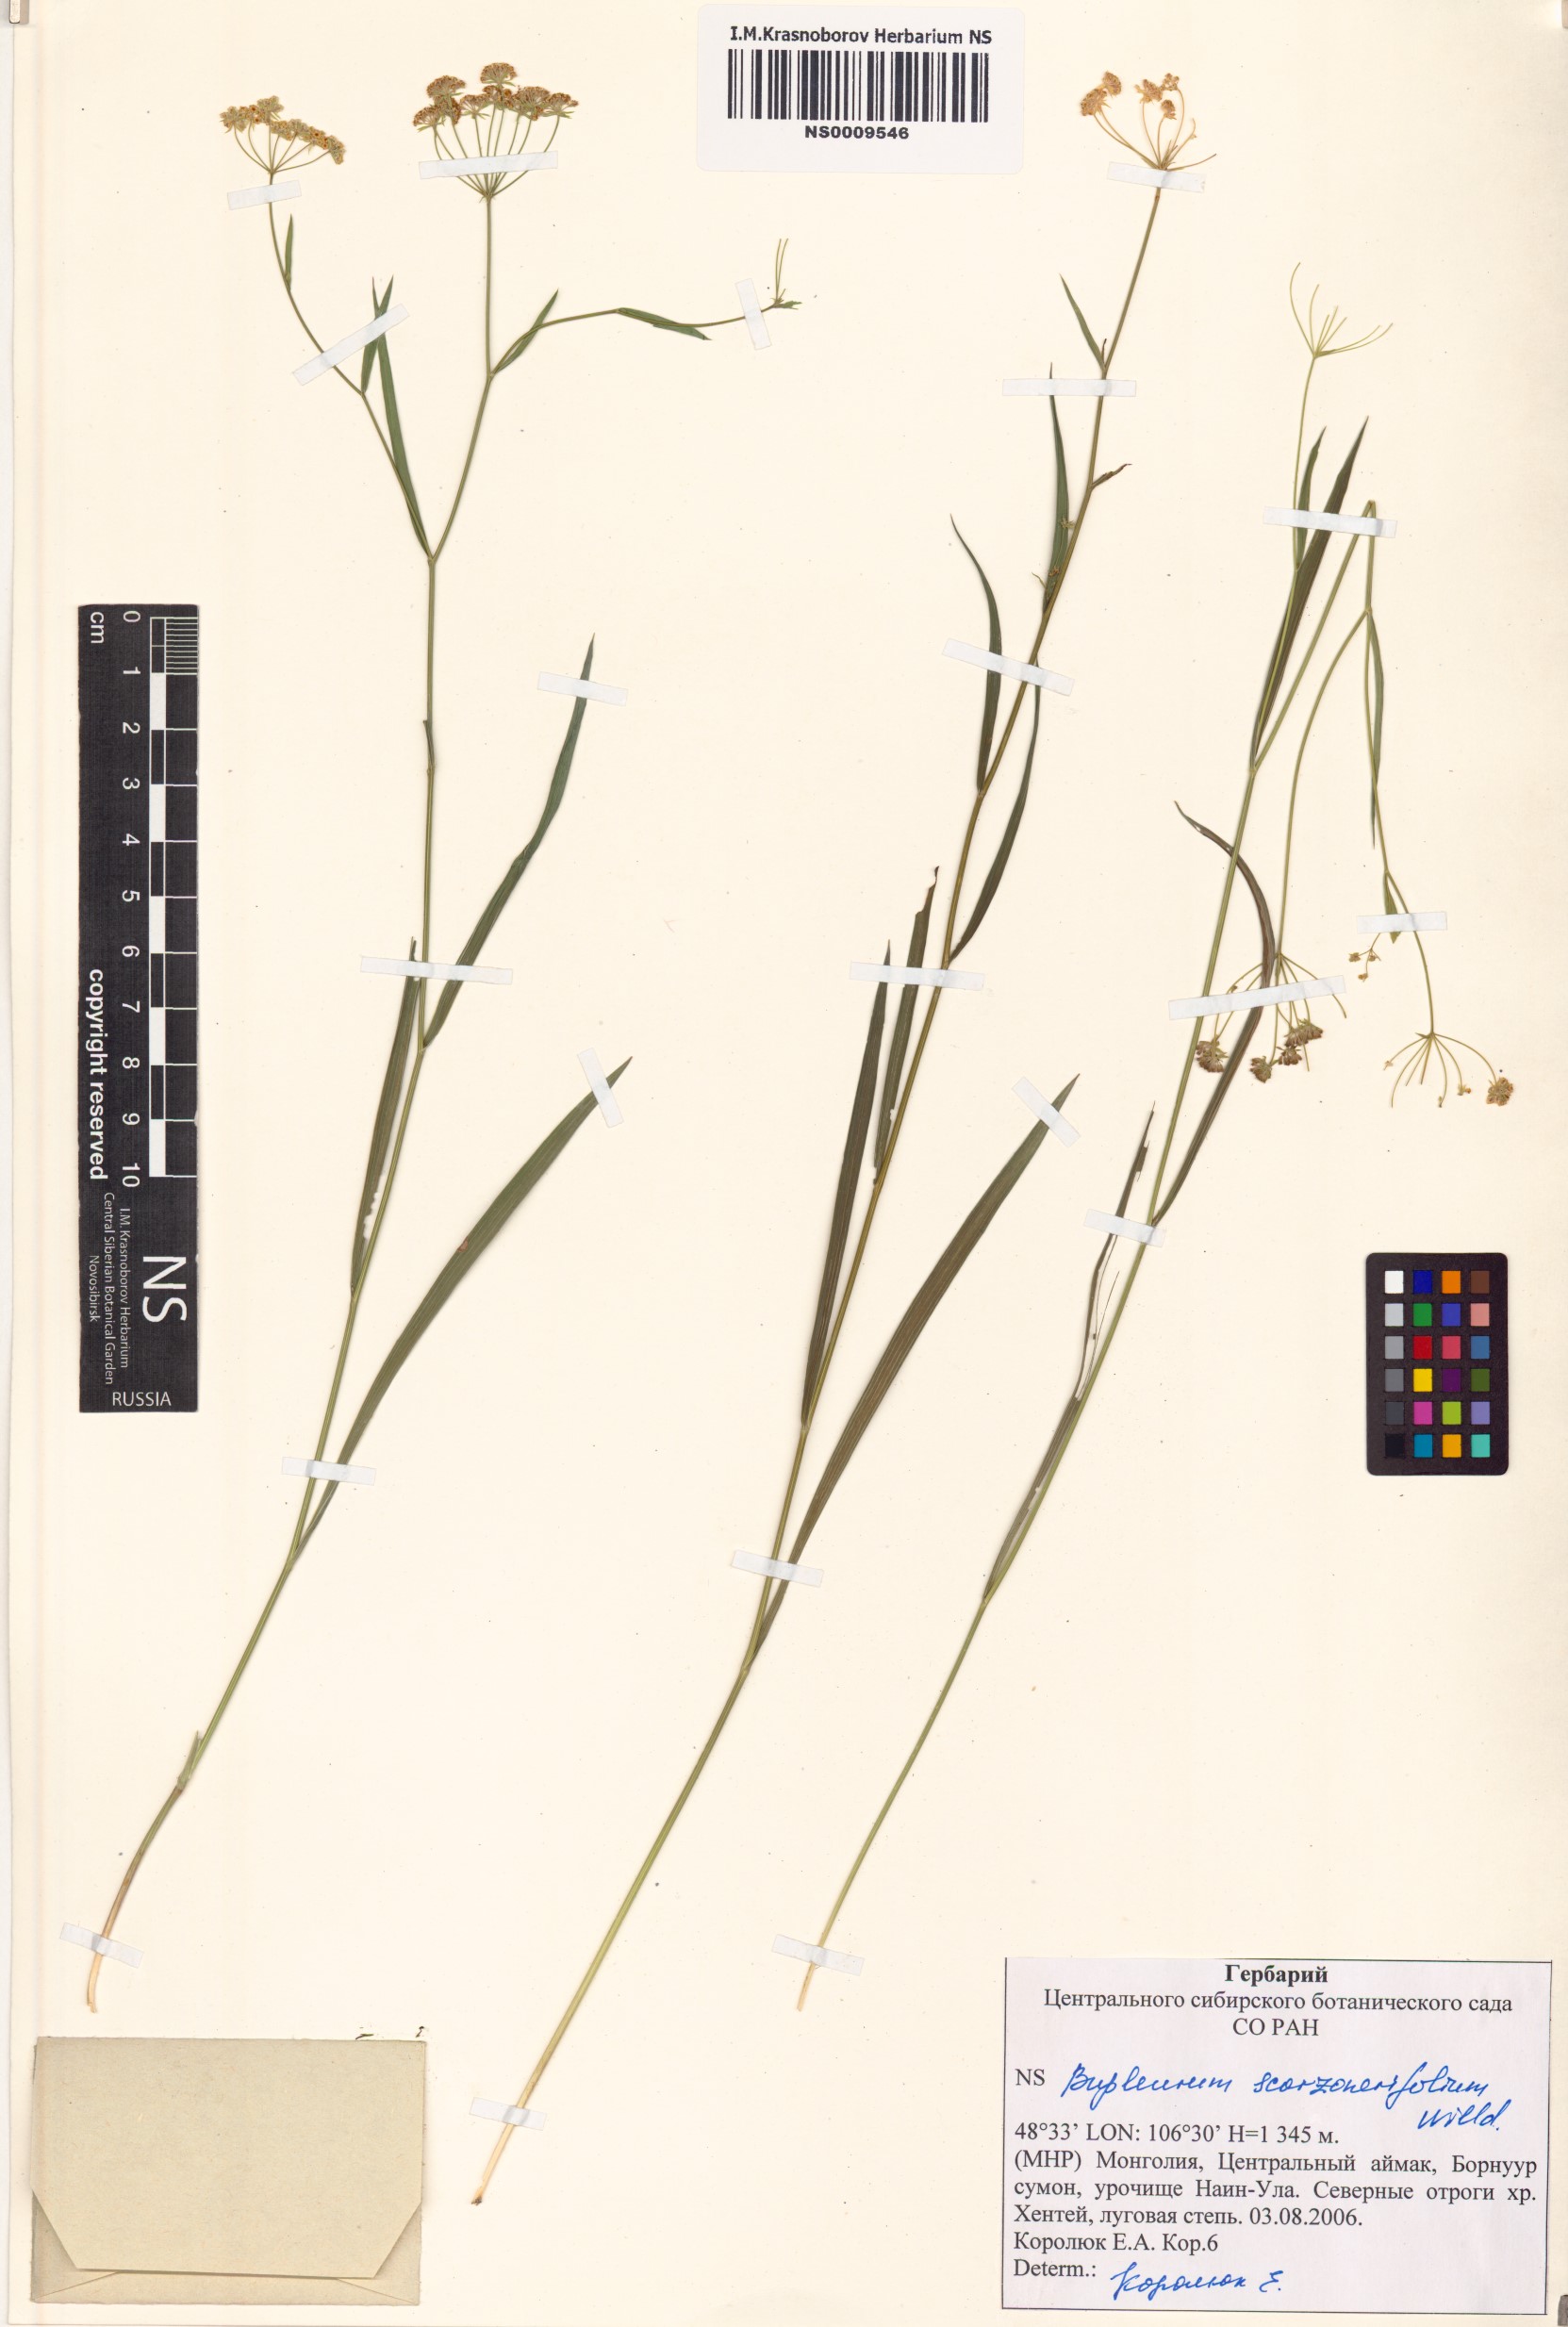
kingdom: Plantae
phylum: Tracheophyta
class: Magnoliopsida
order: Apiales
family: Apiaceae
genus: Bupleurum
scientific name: Bupleurum scorzonerifolium
